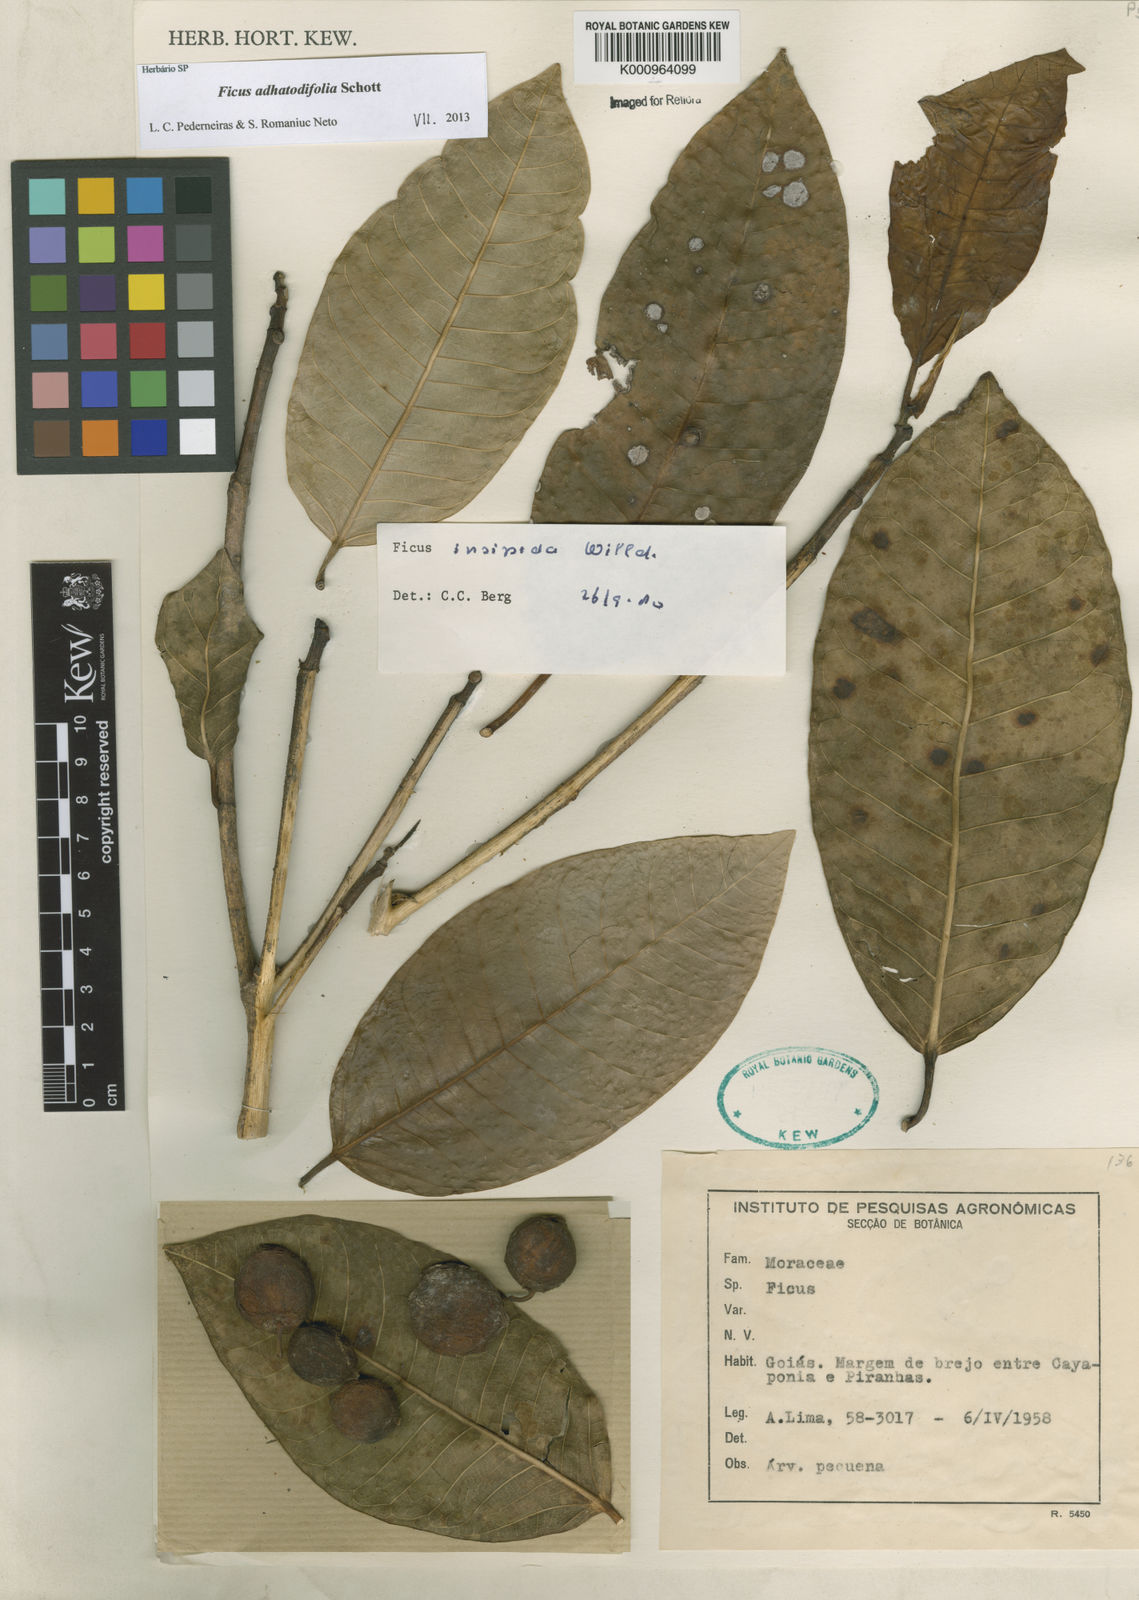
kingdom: Plantae
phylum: Tracheophyta
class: Magnoliopsida
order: Rosales
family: Moraceae
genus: Ficus
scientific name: Ficus
